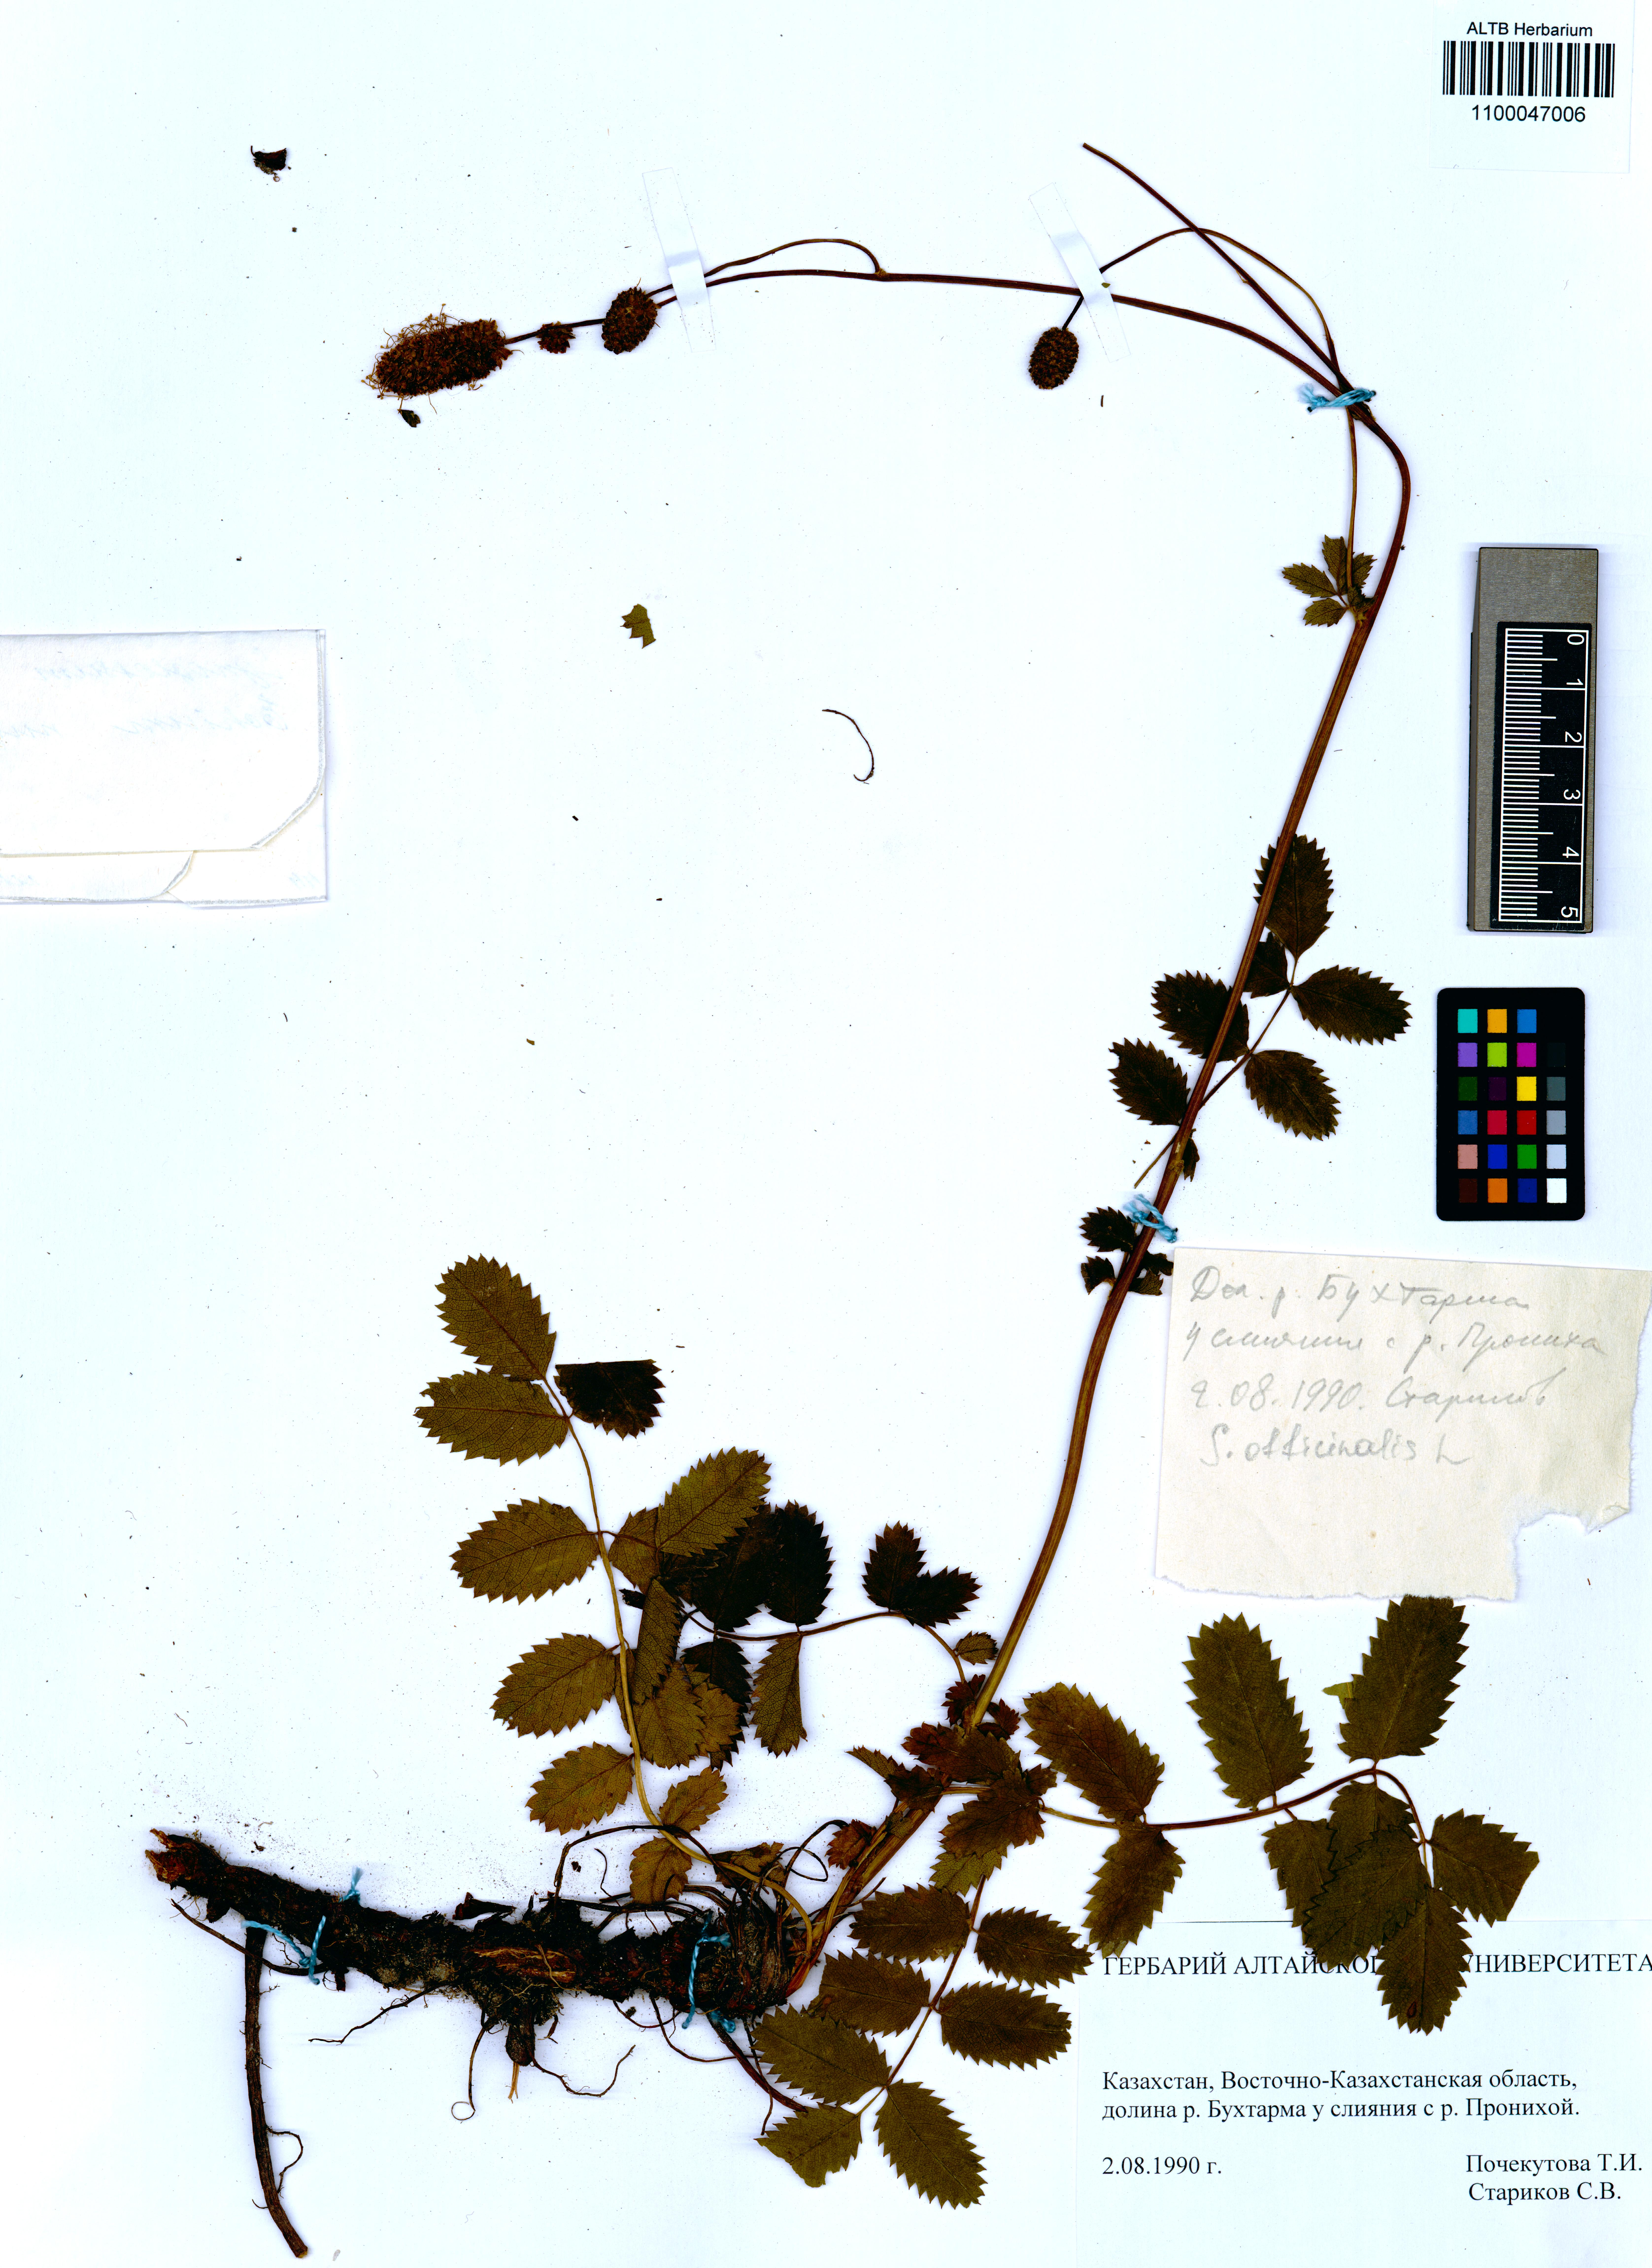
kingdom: Plantae
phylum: Tracheophyta
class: Magnoliopsida
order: Rosales
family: Rosaceae
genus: Sanguisorba
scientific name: Sanguisorba officinalis
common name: Great burnet
